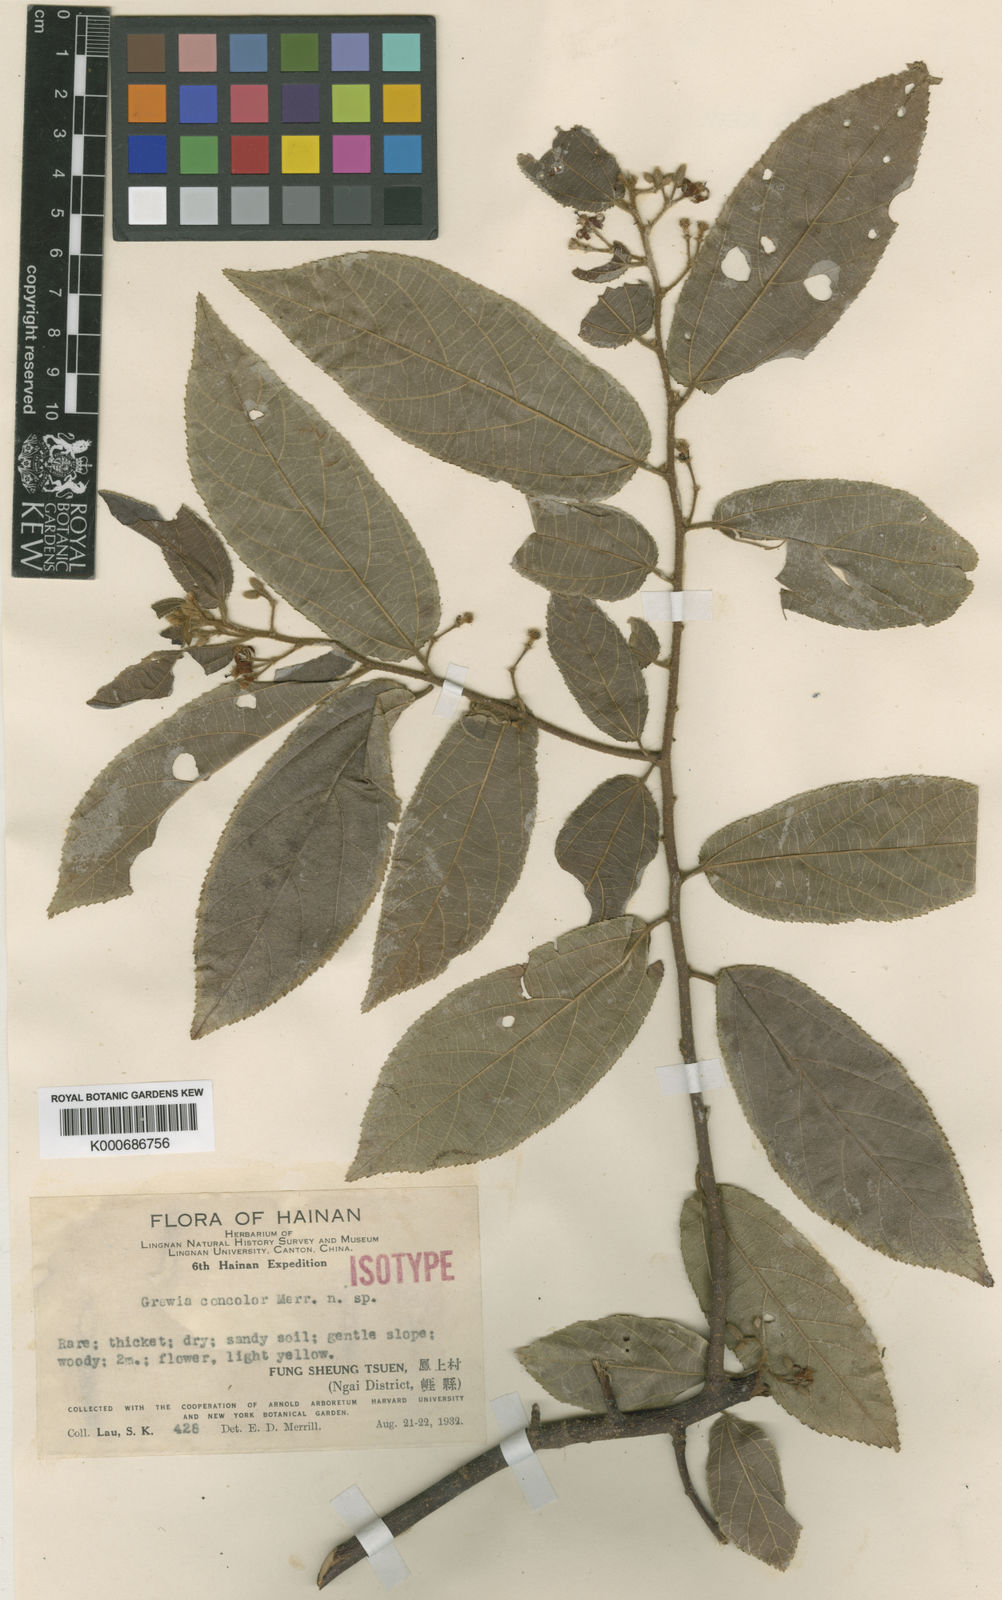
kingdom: Plantae
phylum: Tracheophyta
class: Magnoliopsida
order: Malvales
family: Malvaceae
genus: Grewia
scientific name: Grewia concolor
